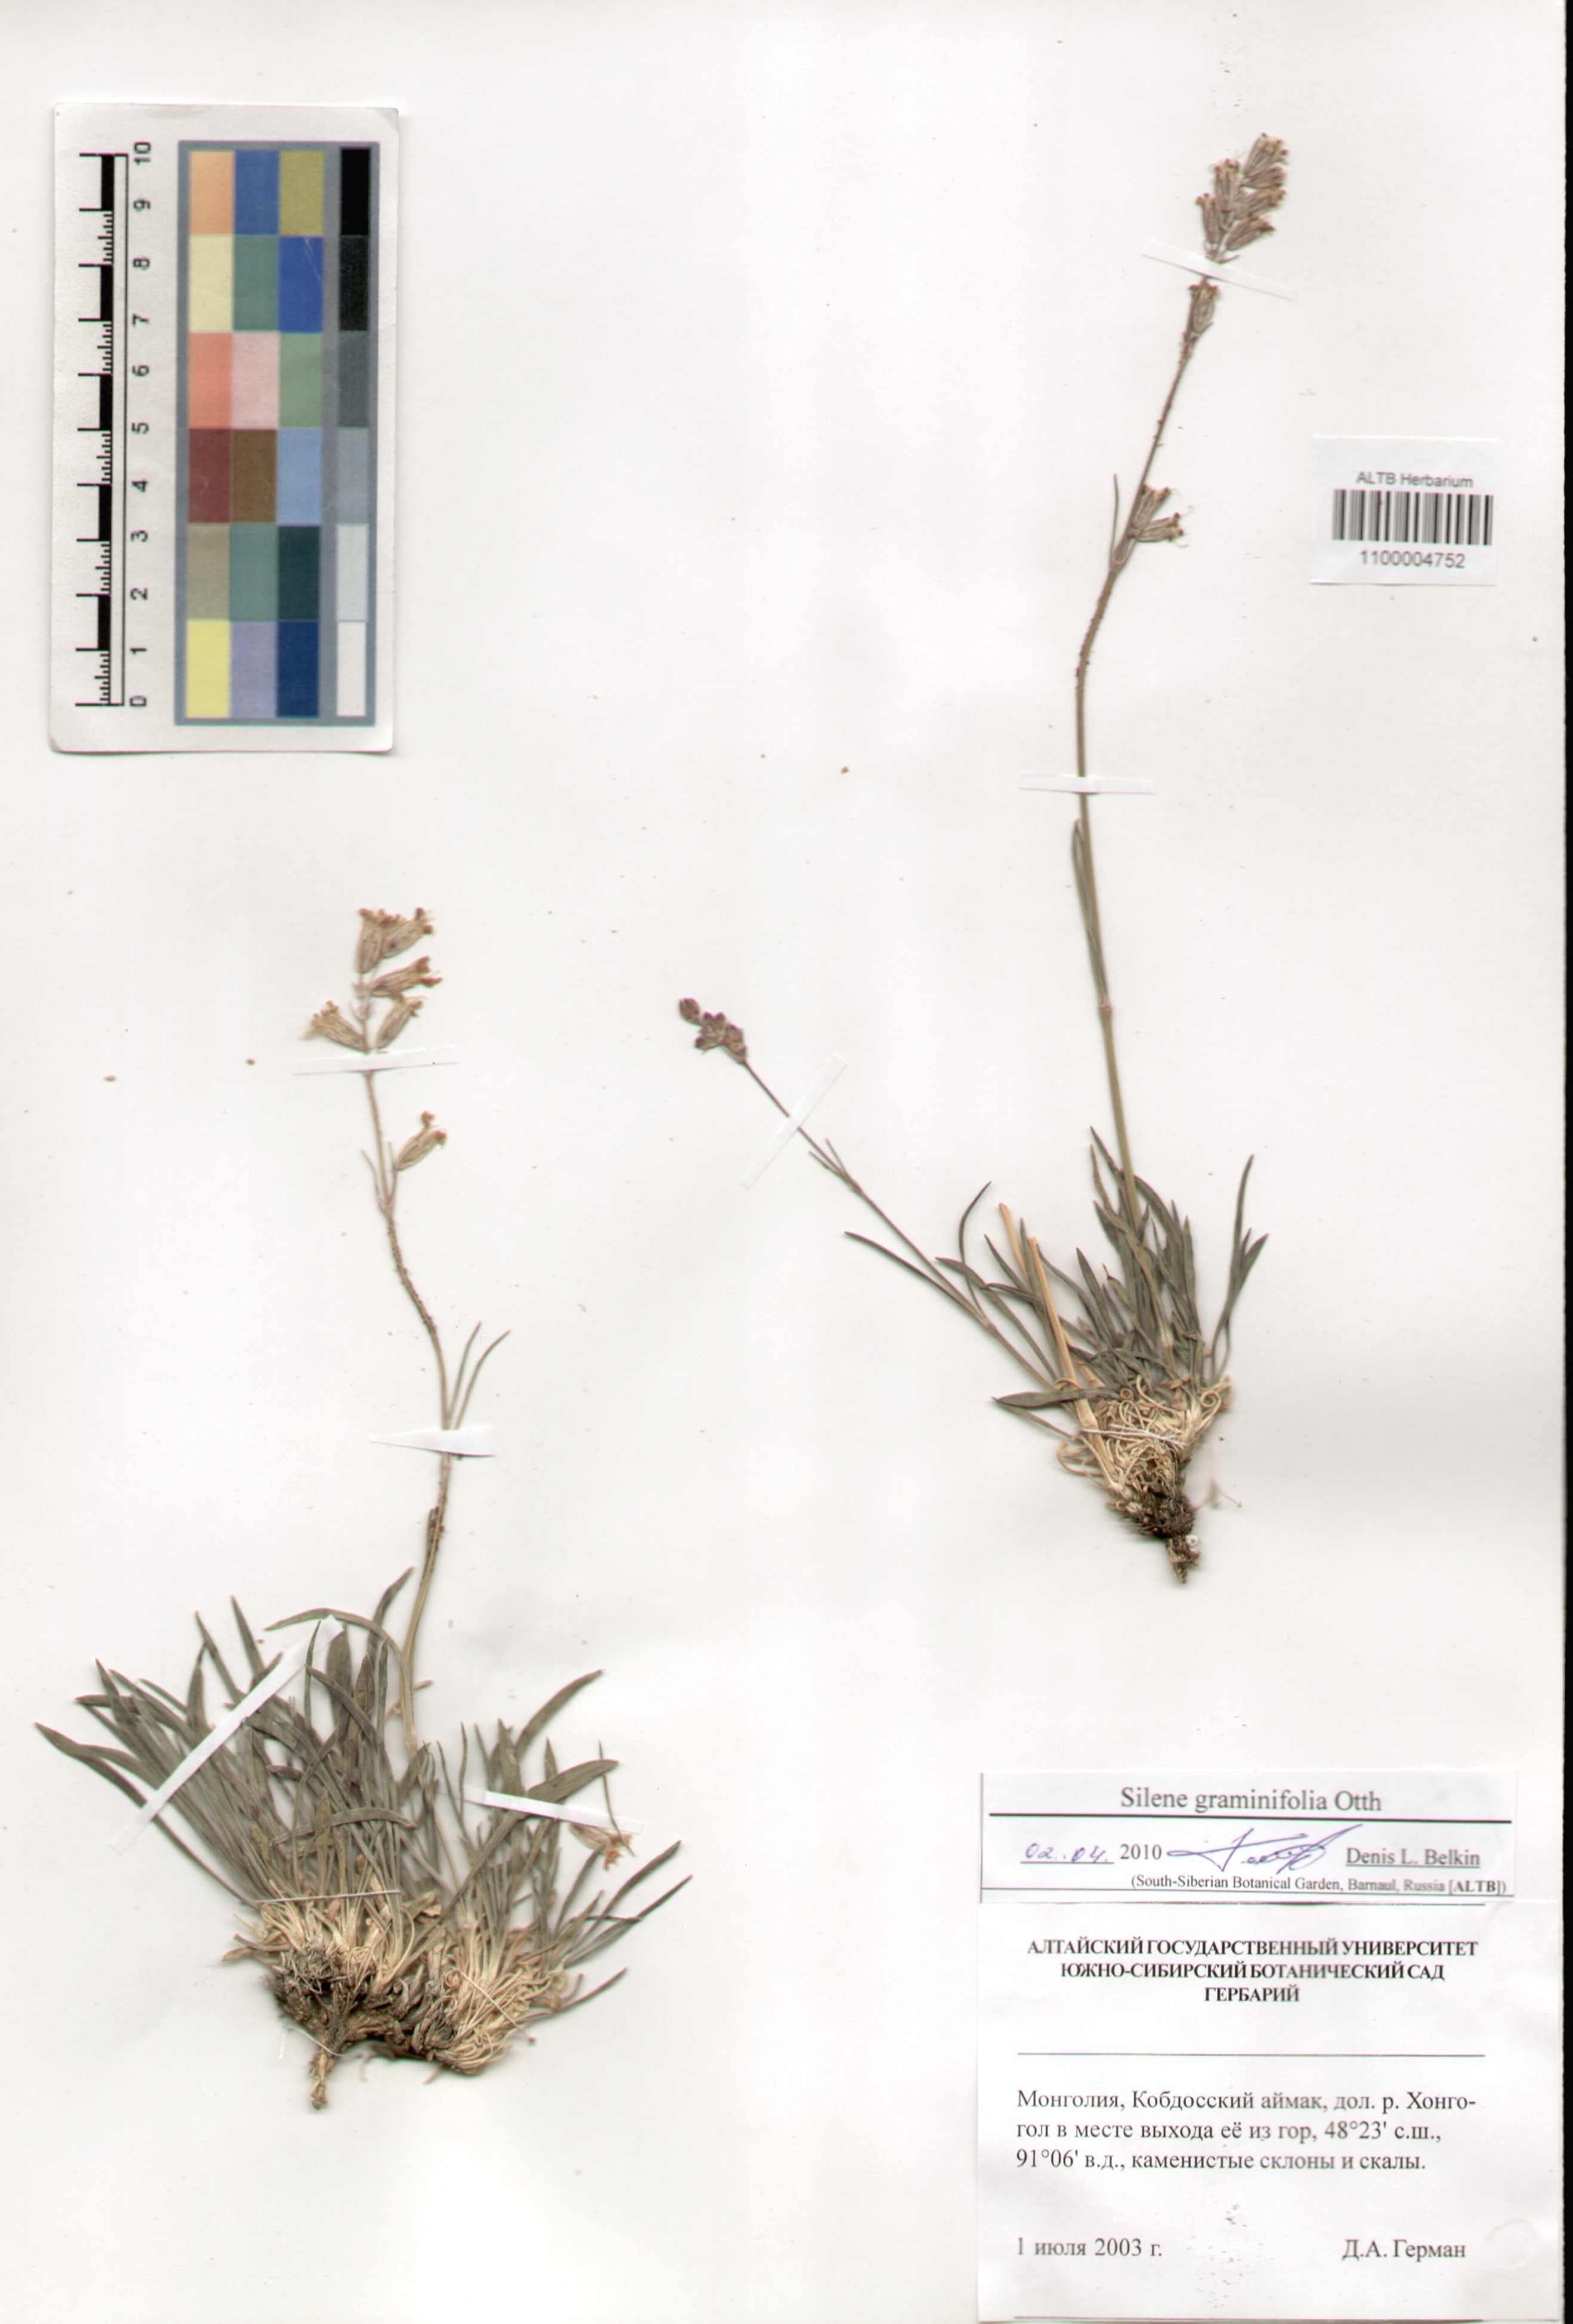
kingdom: Plantae
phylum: Tracheophyta
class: Magnoliopsida
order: Caryophyllales
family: Caryophyllaceae
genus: Silene
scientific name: Silene graminifolia
